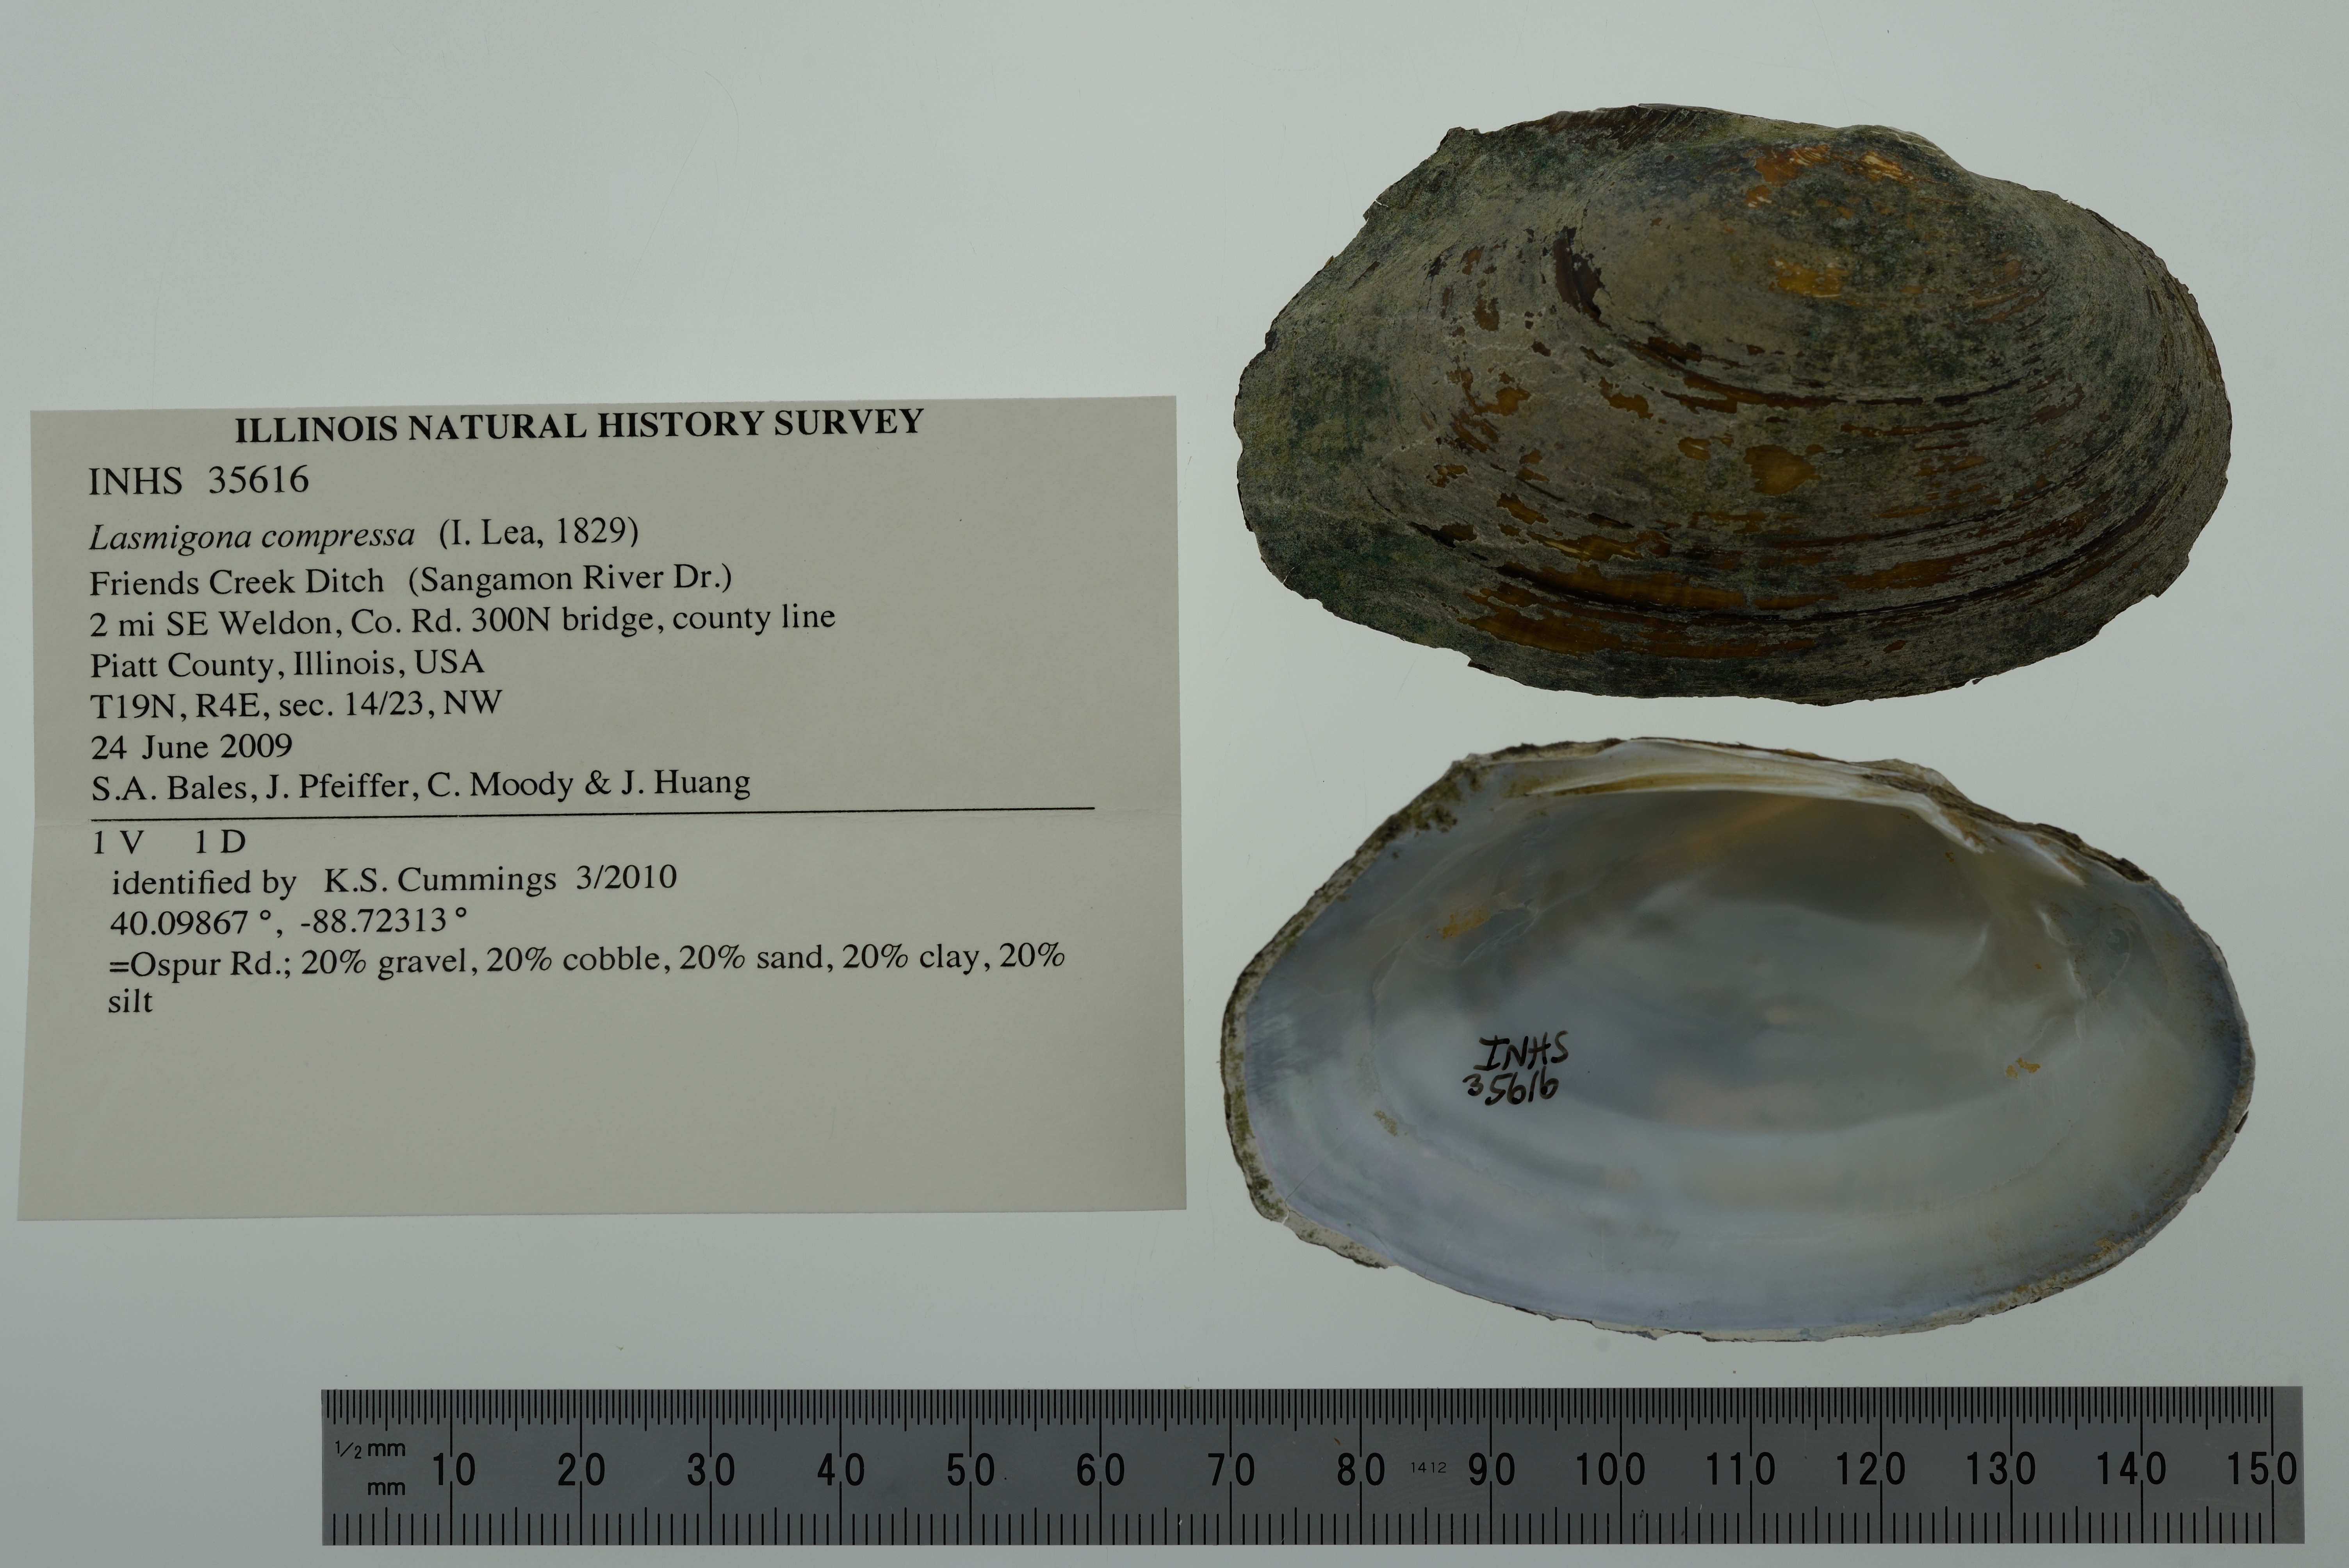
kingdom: Animalia
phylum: Mollusca
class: Bivalvia
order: Unionida
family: Unionidae
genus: Lasmigona
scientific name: Lasmigona compressa
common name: Creek heelsplitter
